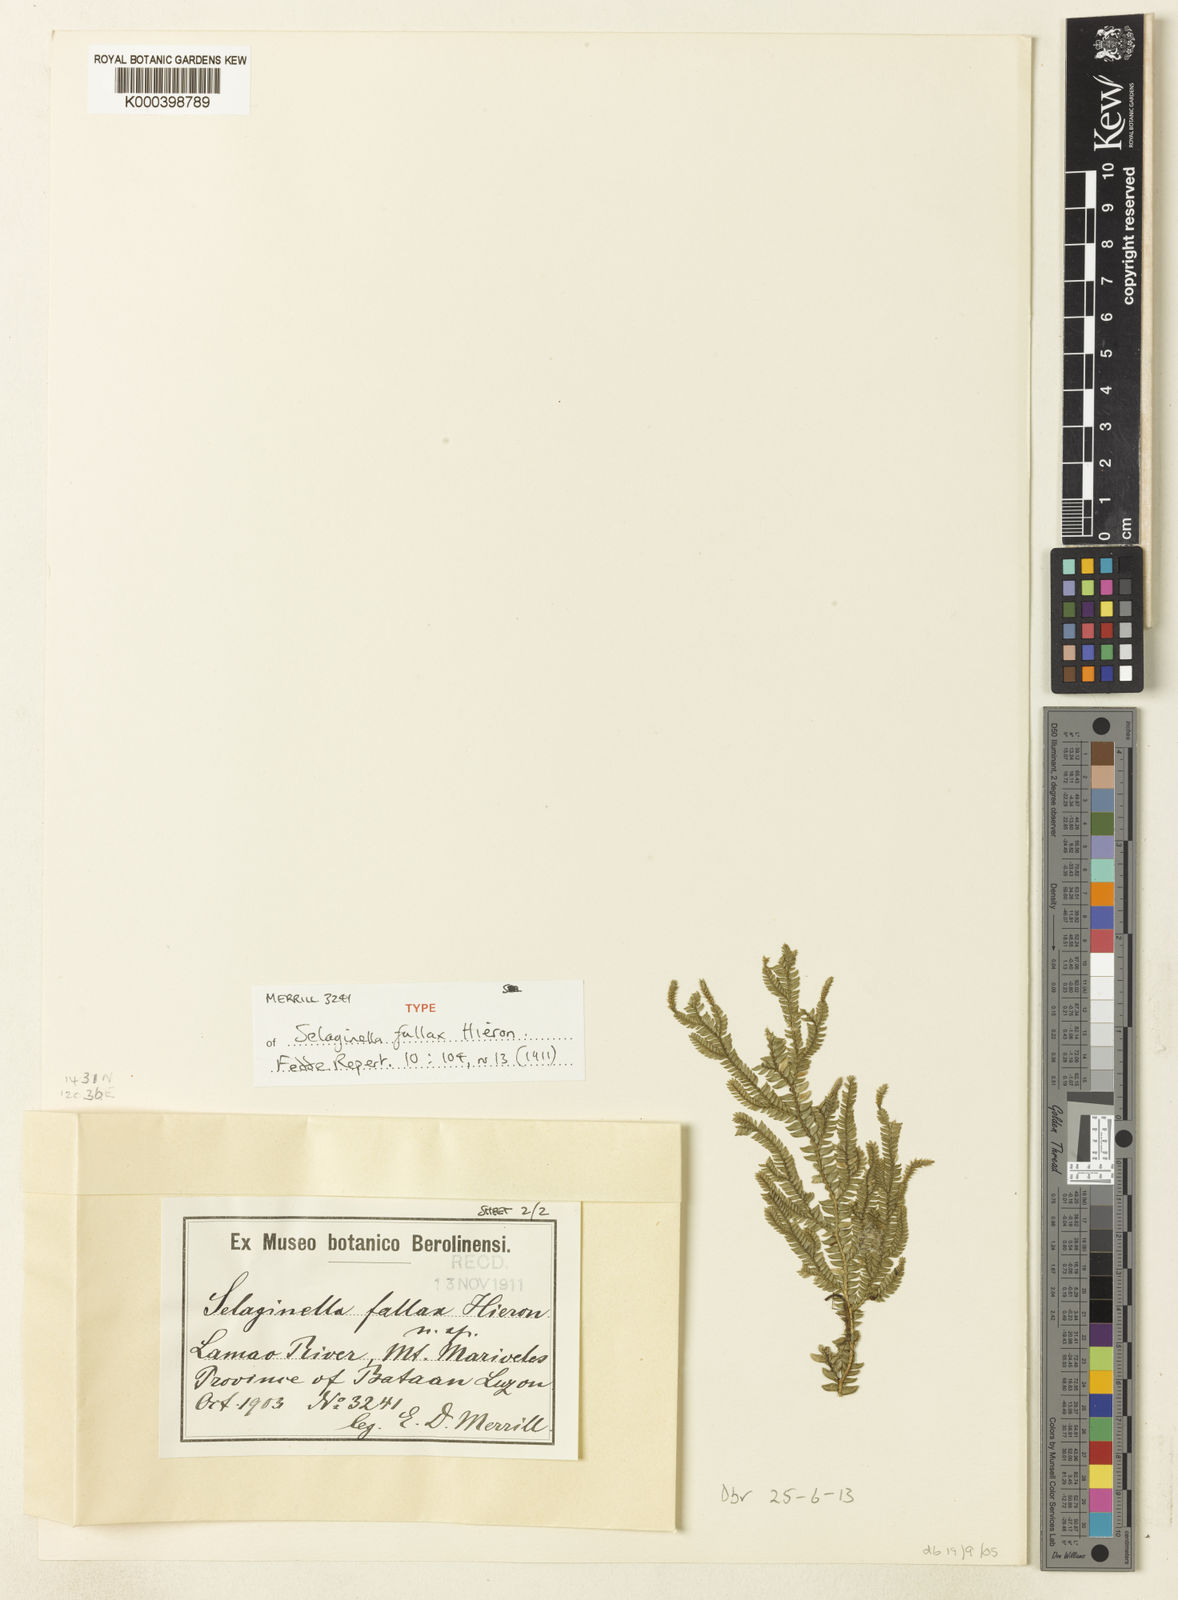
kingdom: Plantae
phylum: Tracheophyta
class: Lycopodiopsida
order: Selaginellales
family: Selaginellaceae
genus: Selaginella
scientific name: Selaginella jagorii
